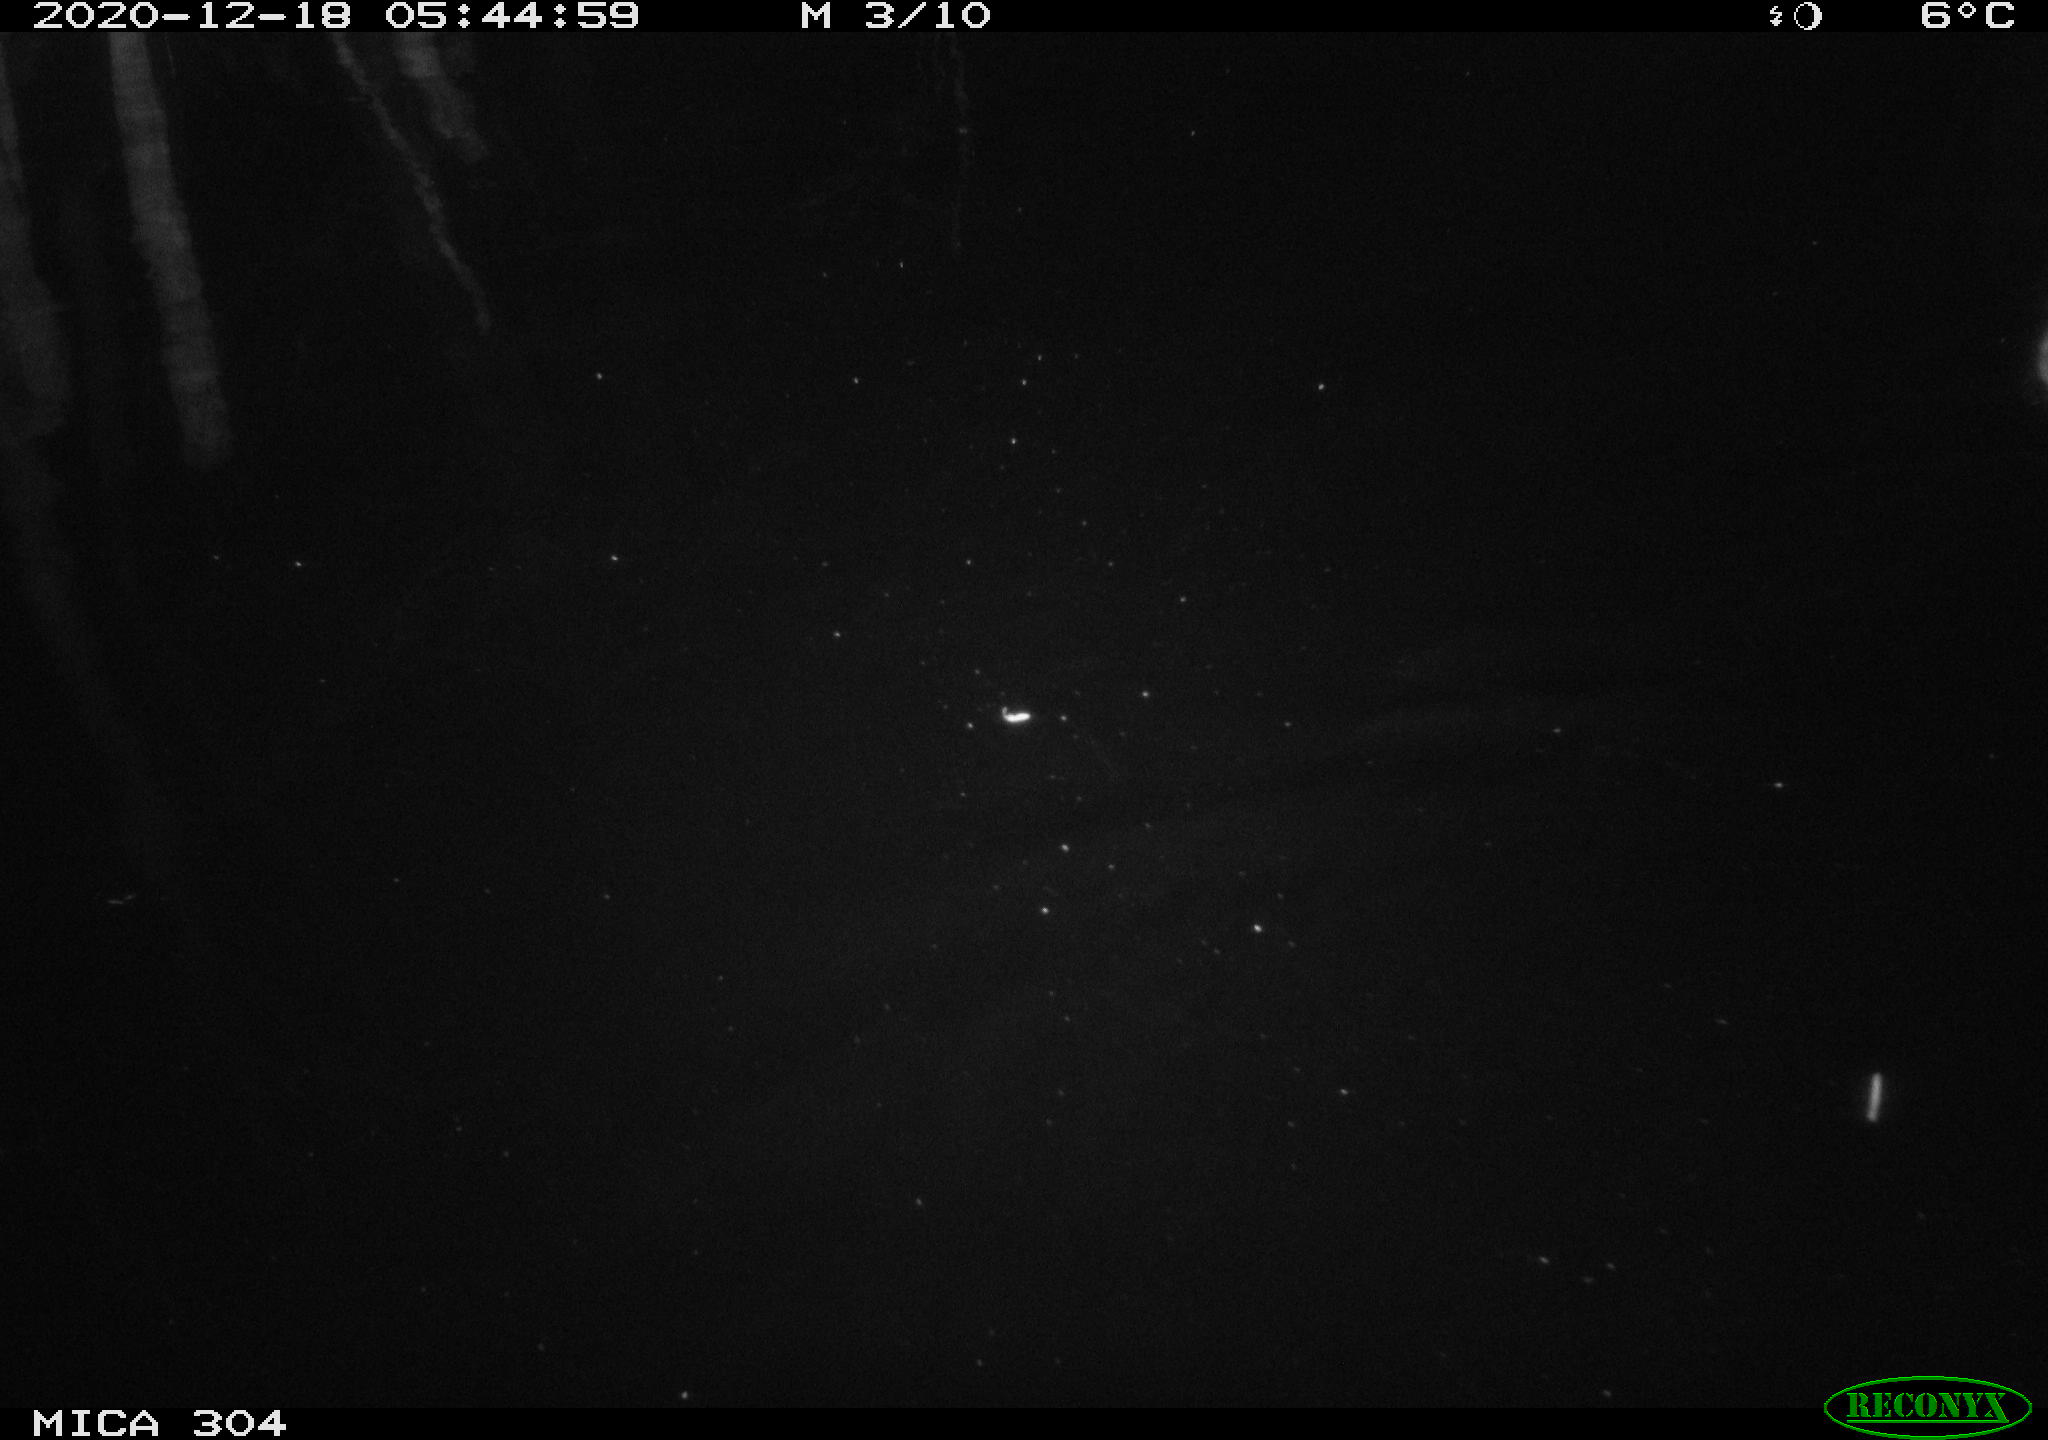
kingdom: Animalia
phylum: Chordata
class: Mammalia
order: Rodentia
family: Muridae
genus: Rattus
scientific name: Rattus norvegicus
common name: Brown rat
